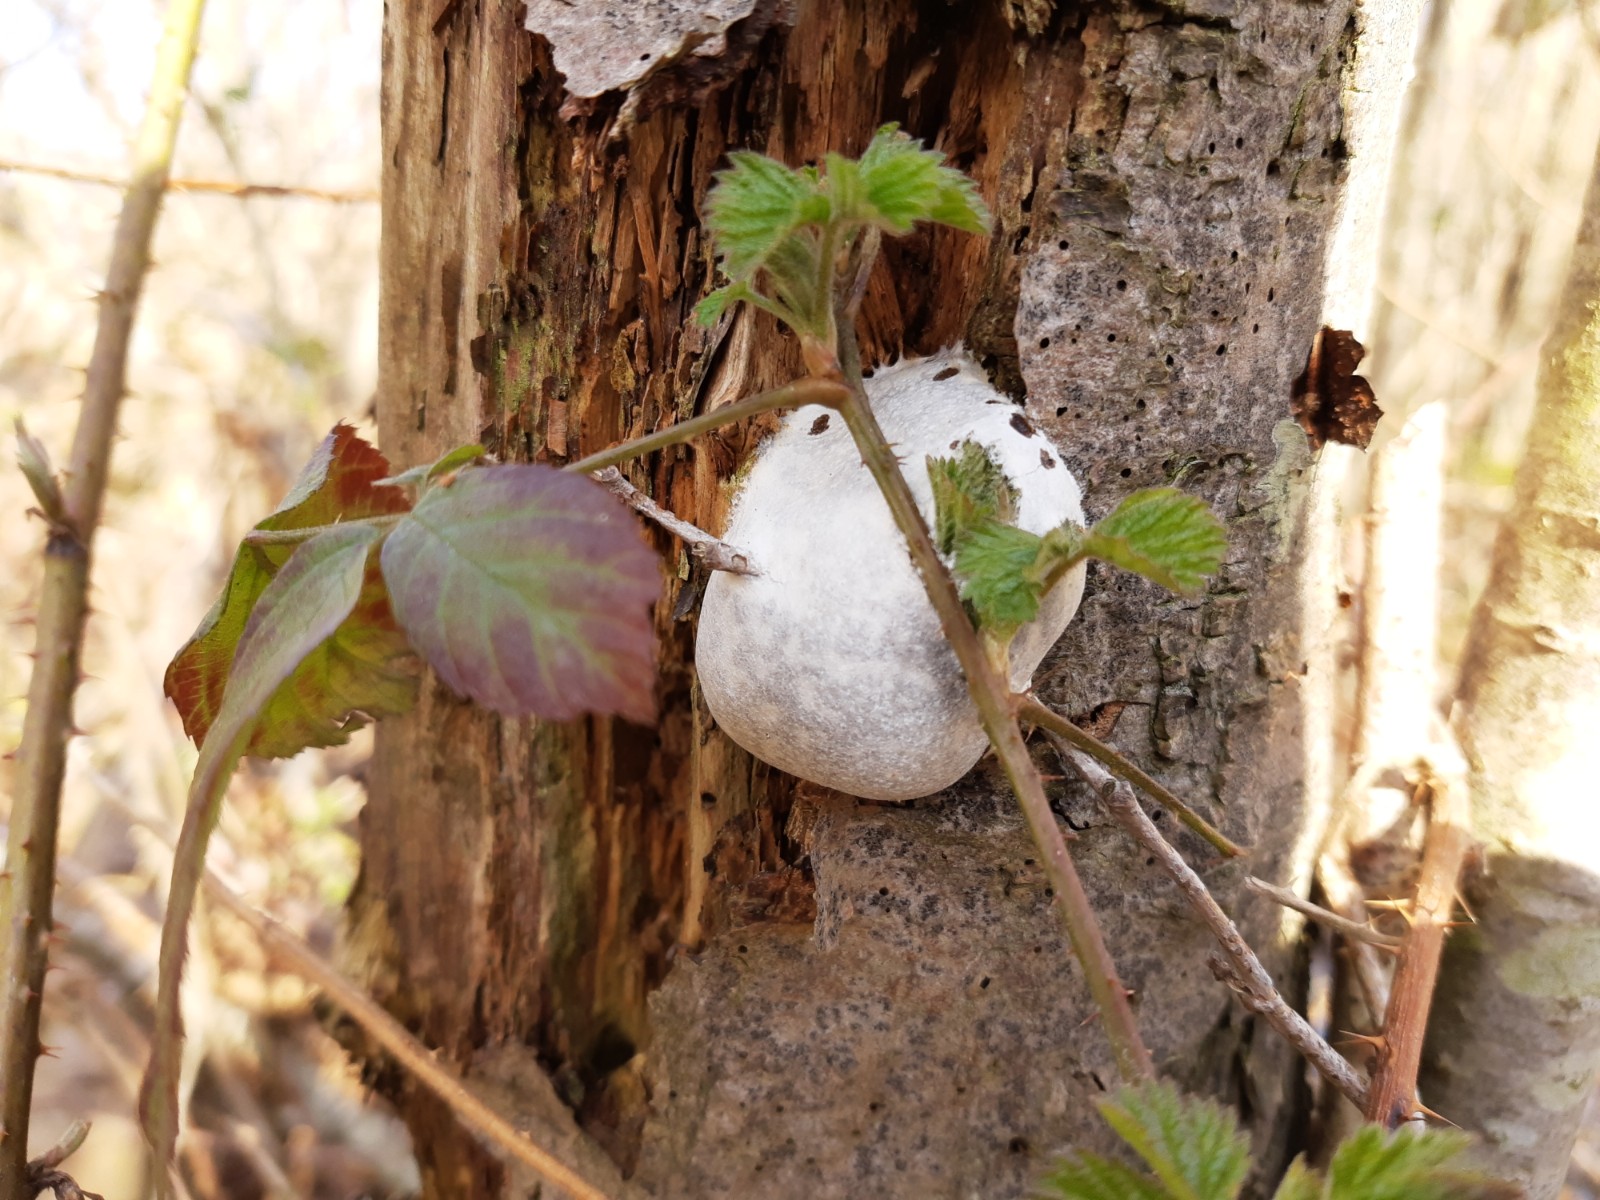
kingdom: Protozoa
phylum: Mycetozoa
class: Myxomycetes
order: Cribrariales
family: Tubiferaceae
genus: Reticularia
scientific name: Reticularia lycoperdon
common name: skinnende støvpude
